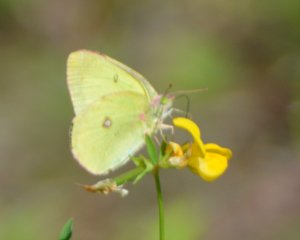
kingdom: Animalia
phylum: Arthropoda
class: Insecta
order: Lepidoptera
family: Pieridae
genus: Colias
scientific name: Colias interior
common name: Pink-edged Sulphur
